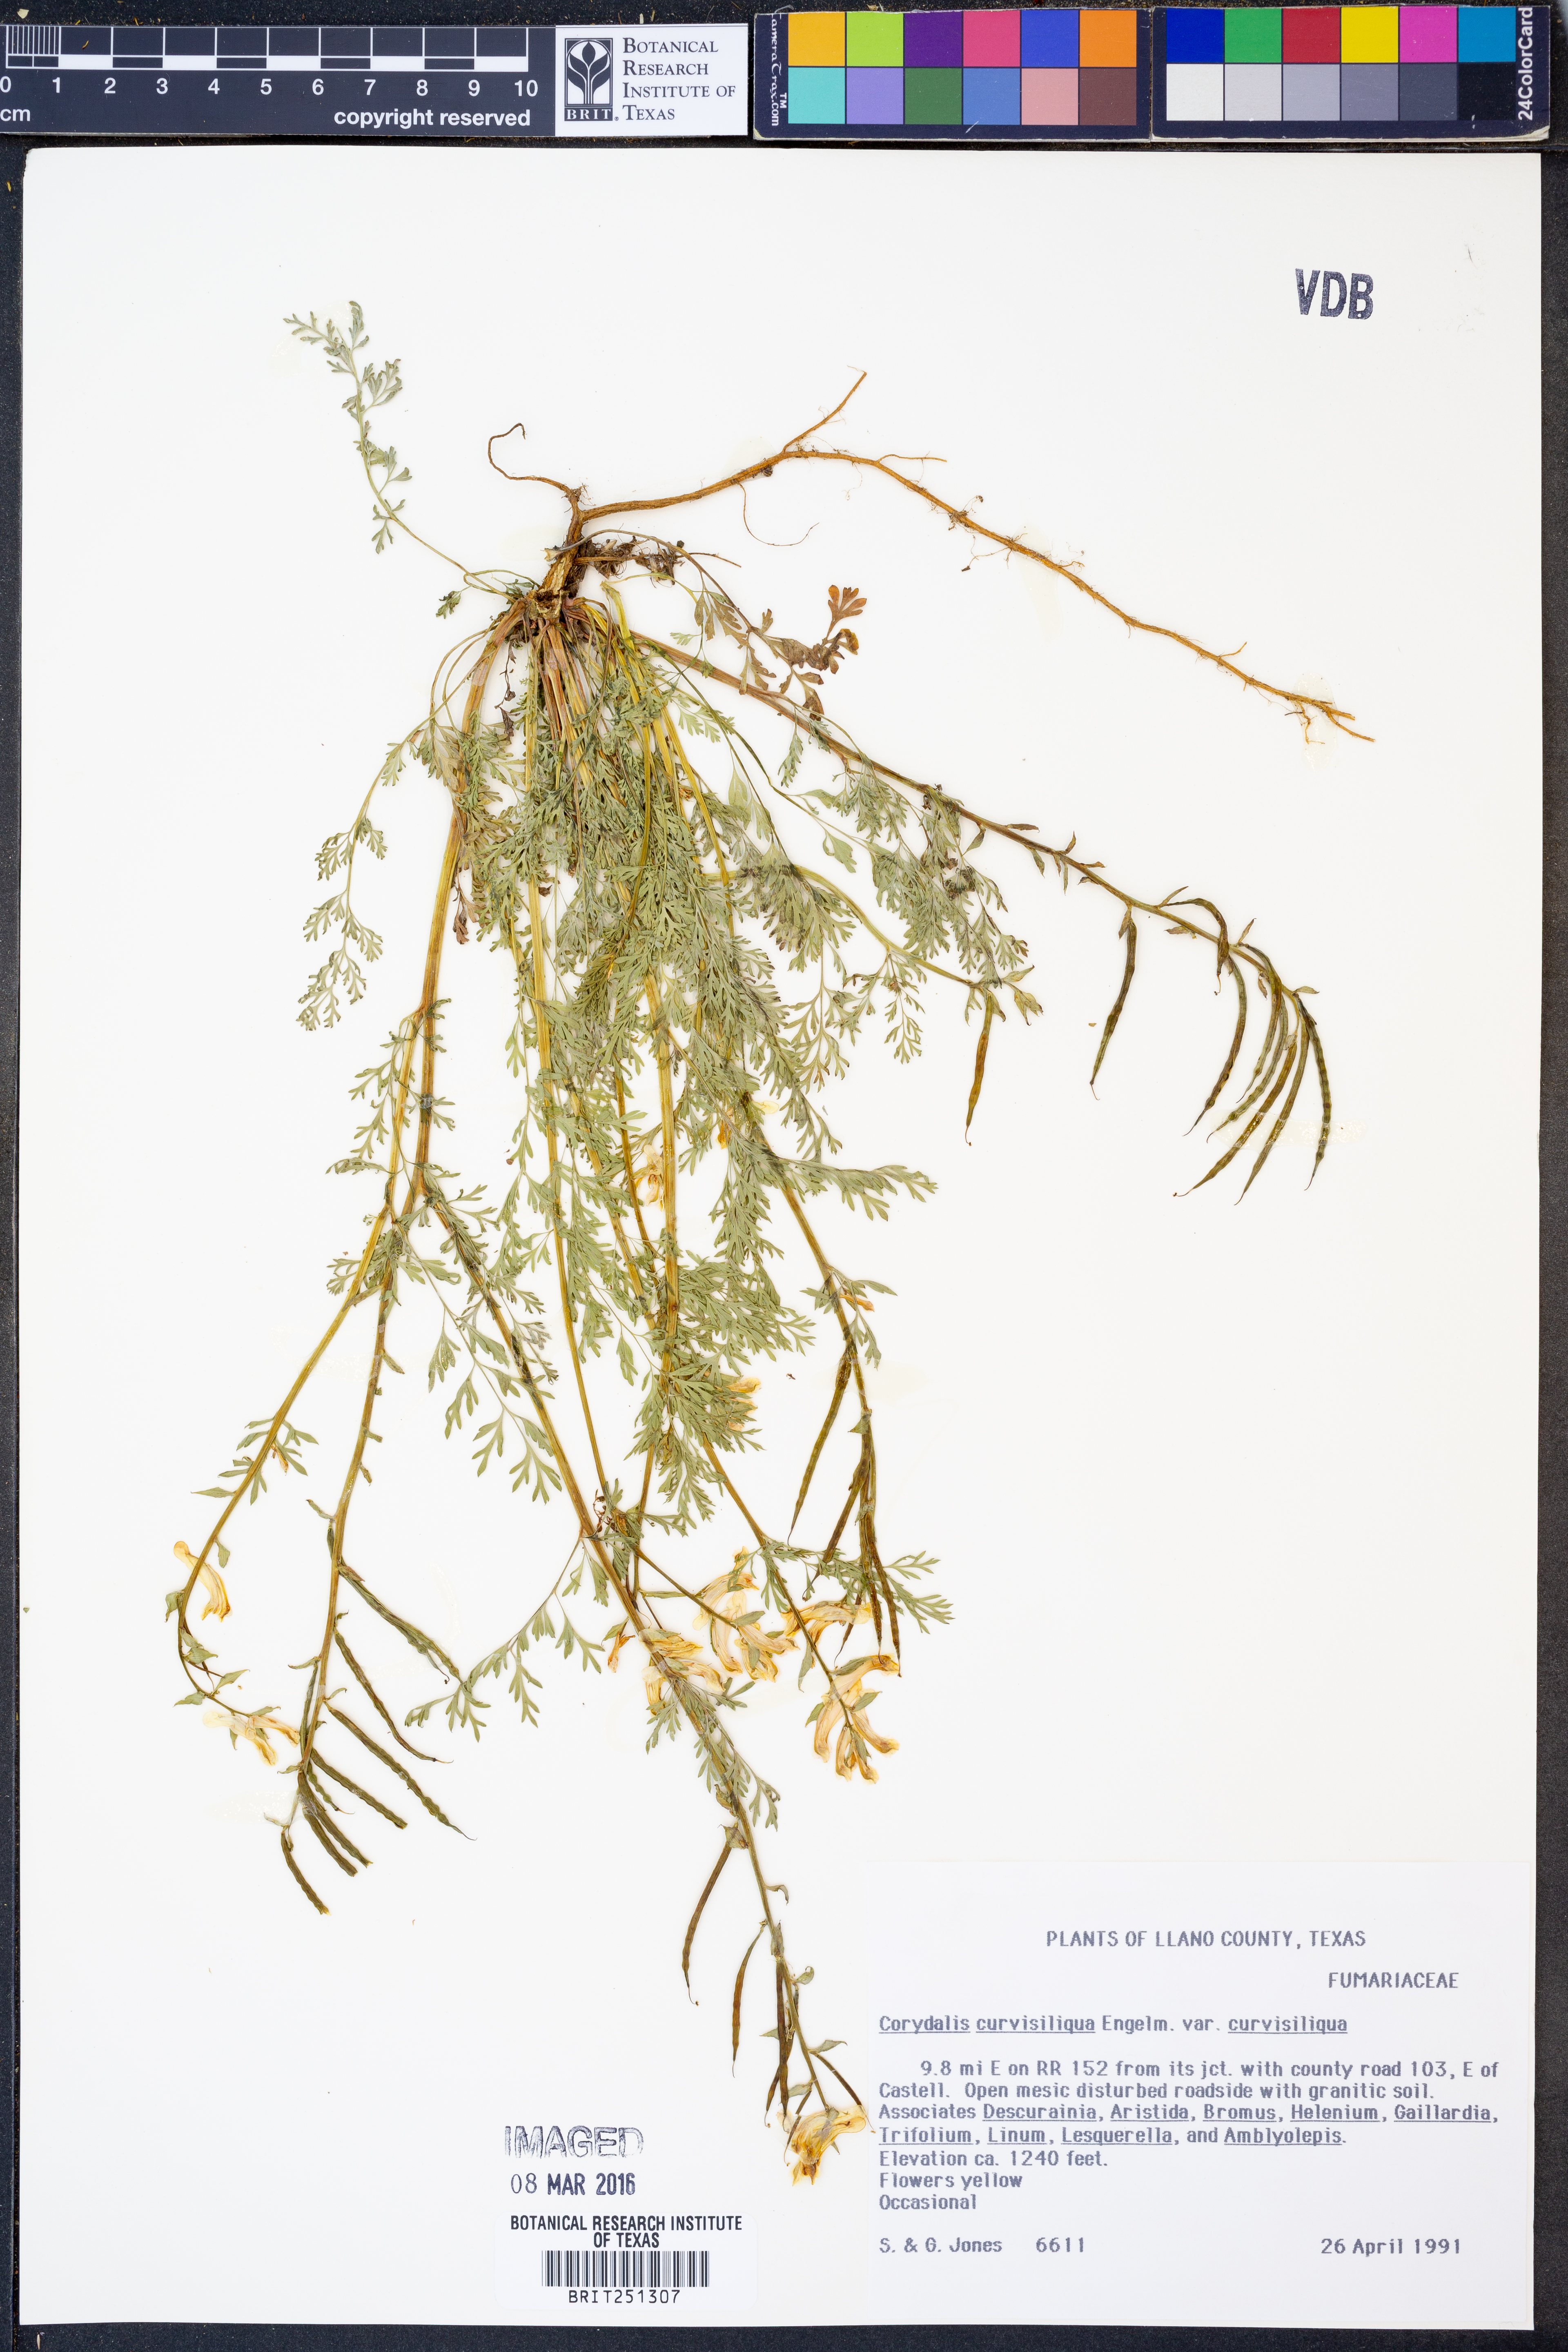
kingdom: Plantae
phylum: Tracheophyta
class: Magnoliopsida
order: Ranunculales
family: Papaveraceae
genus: Corydalis
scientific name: Corydalis curvisiliqua
